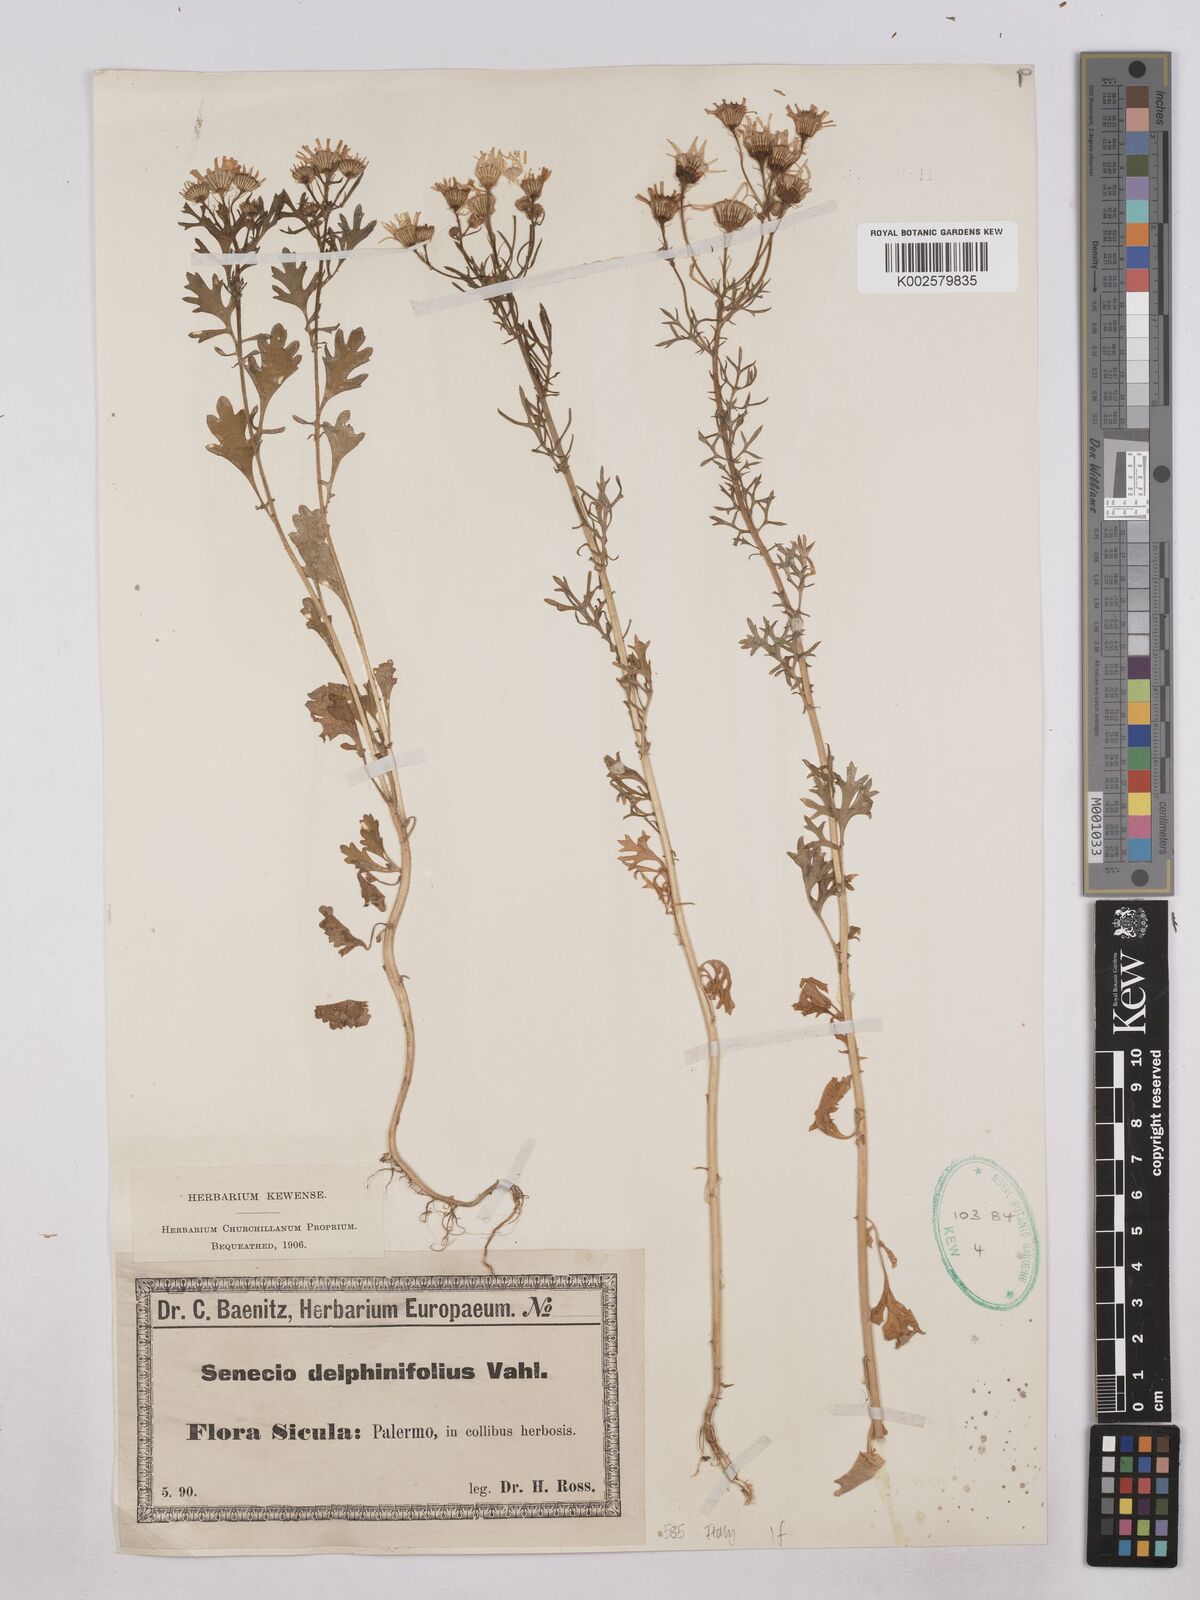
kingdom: Plantae
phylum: Tracheophyta
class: Magnoliopsida
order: Asterales
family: Asteraceae
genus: Jacobaea
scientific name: Jacobaea erucifolia
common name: Hoary ragwort
